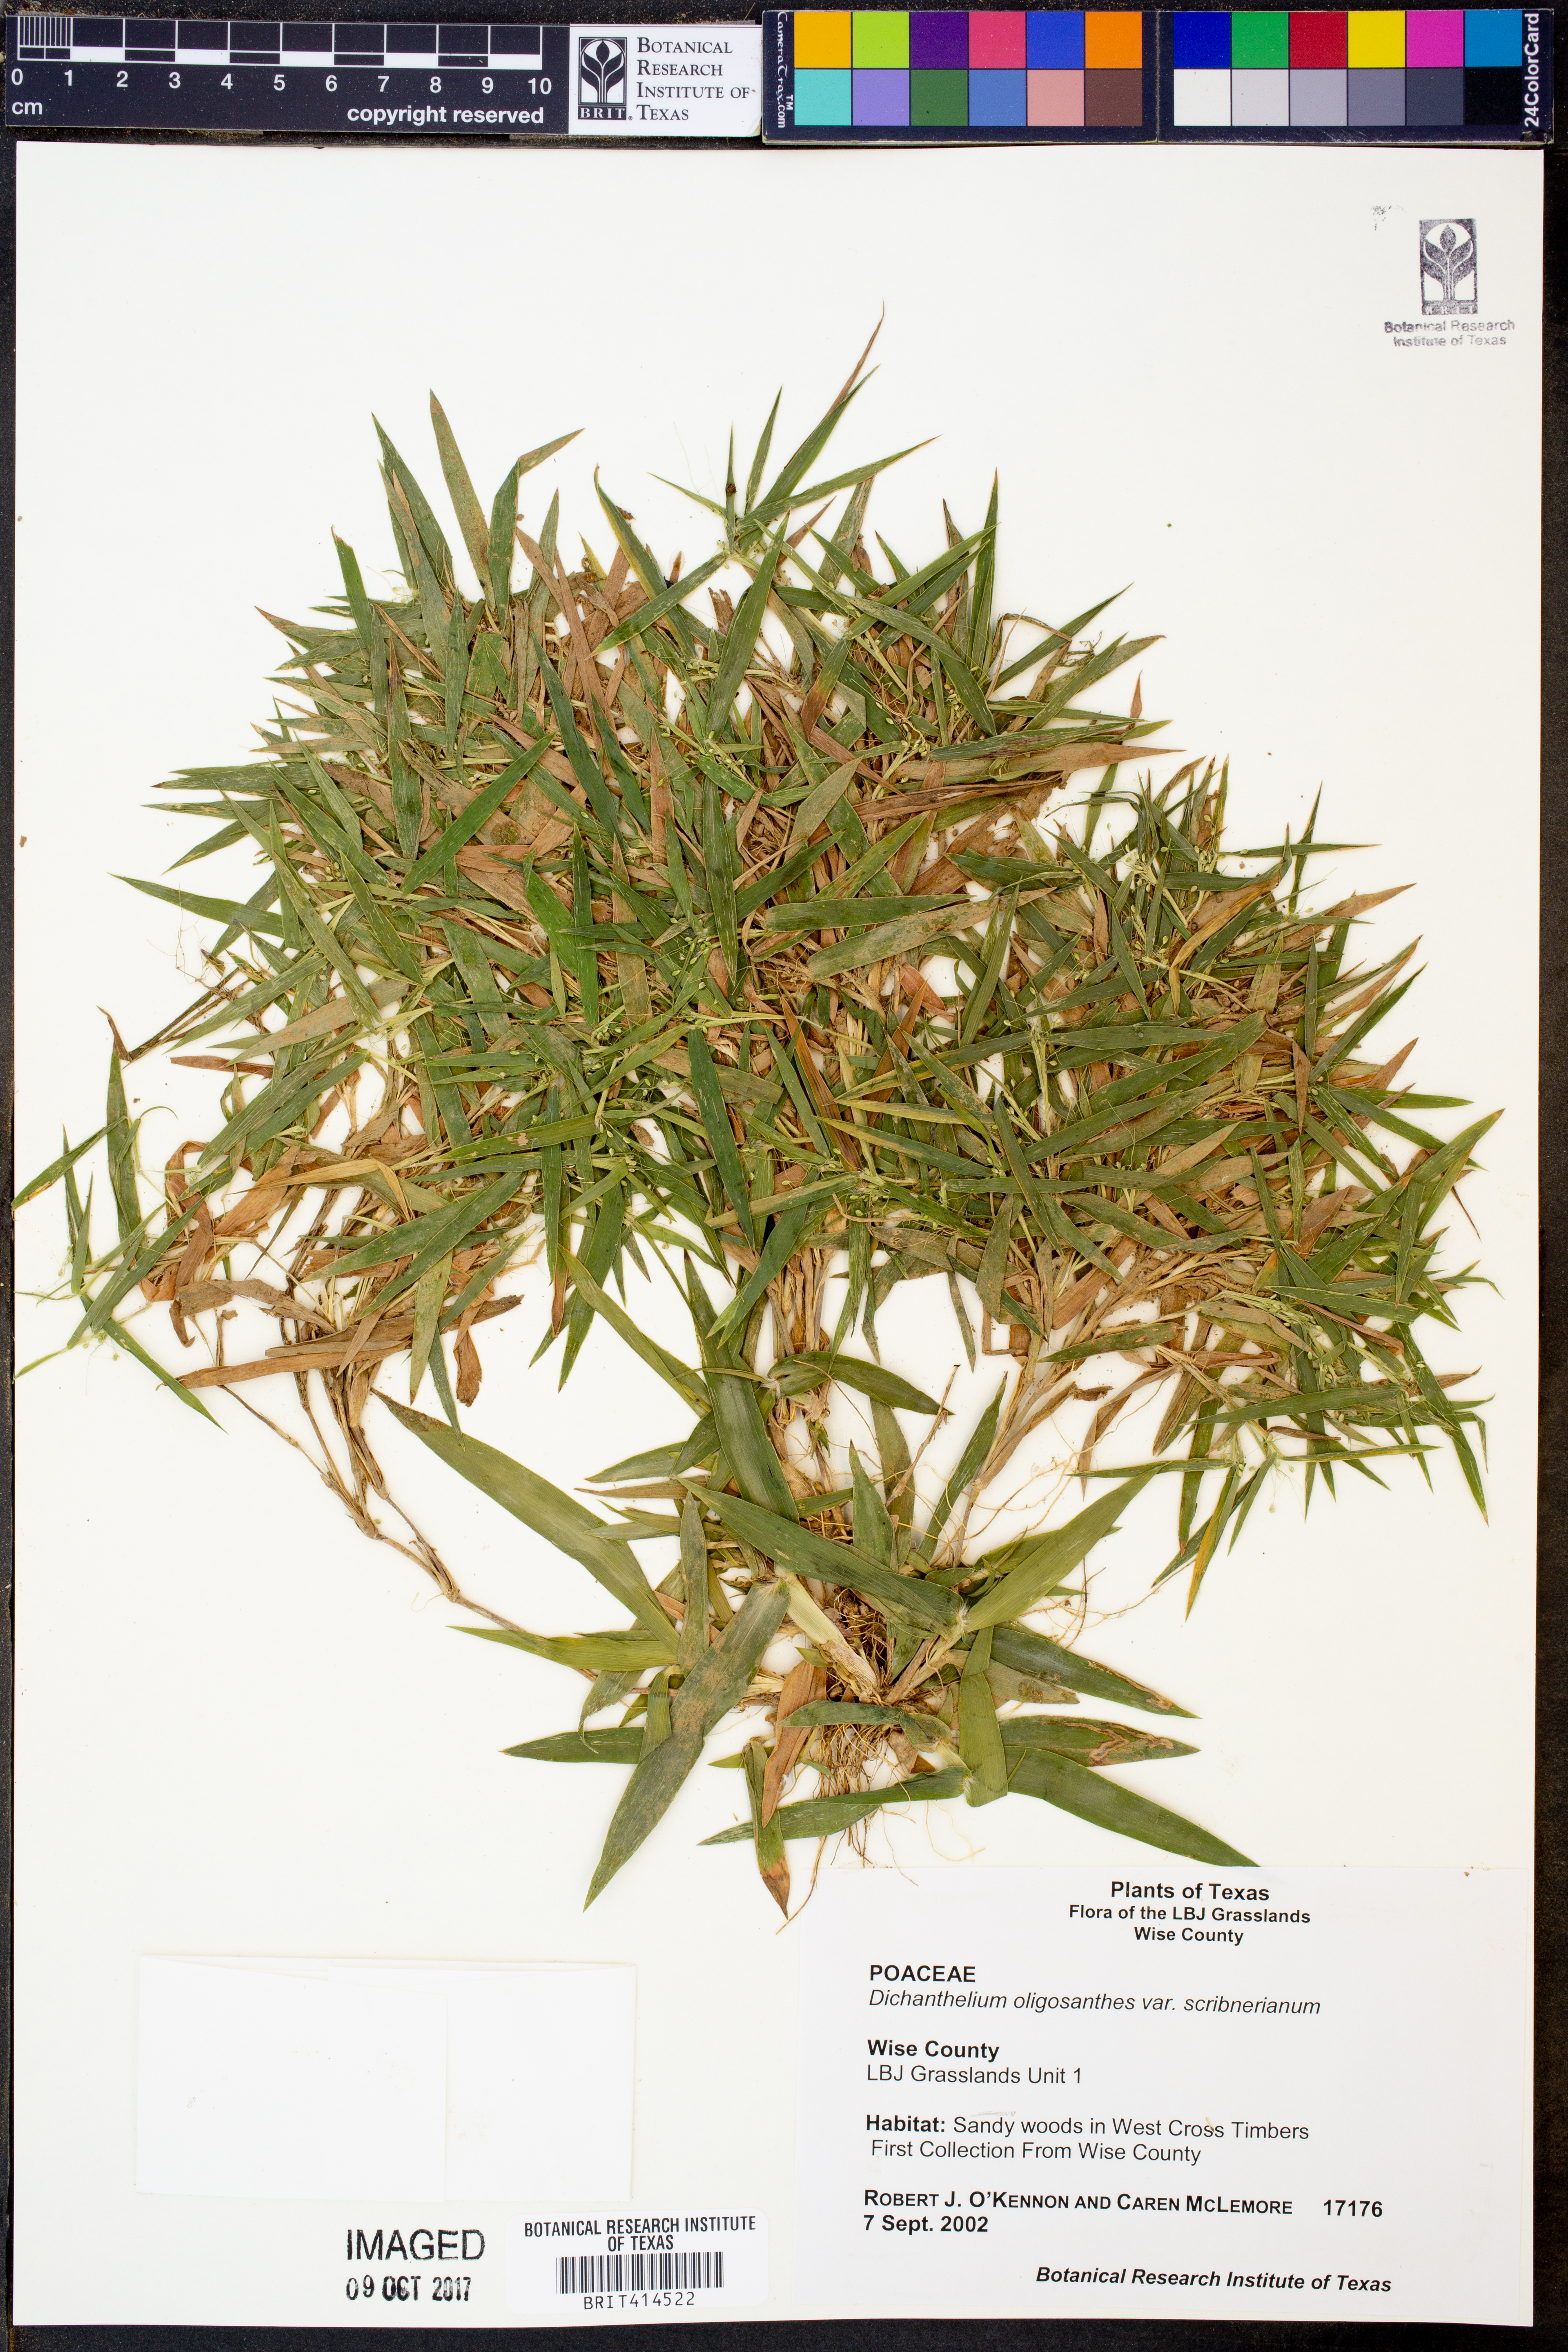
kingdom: Plantae
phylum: Tracheophyta
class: Liliopsida
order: Poales
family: Poaceae
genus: Dichanthelium
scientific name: Dichanthelium scribnerianum
